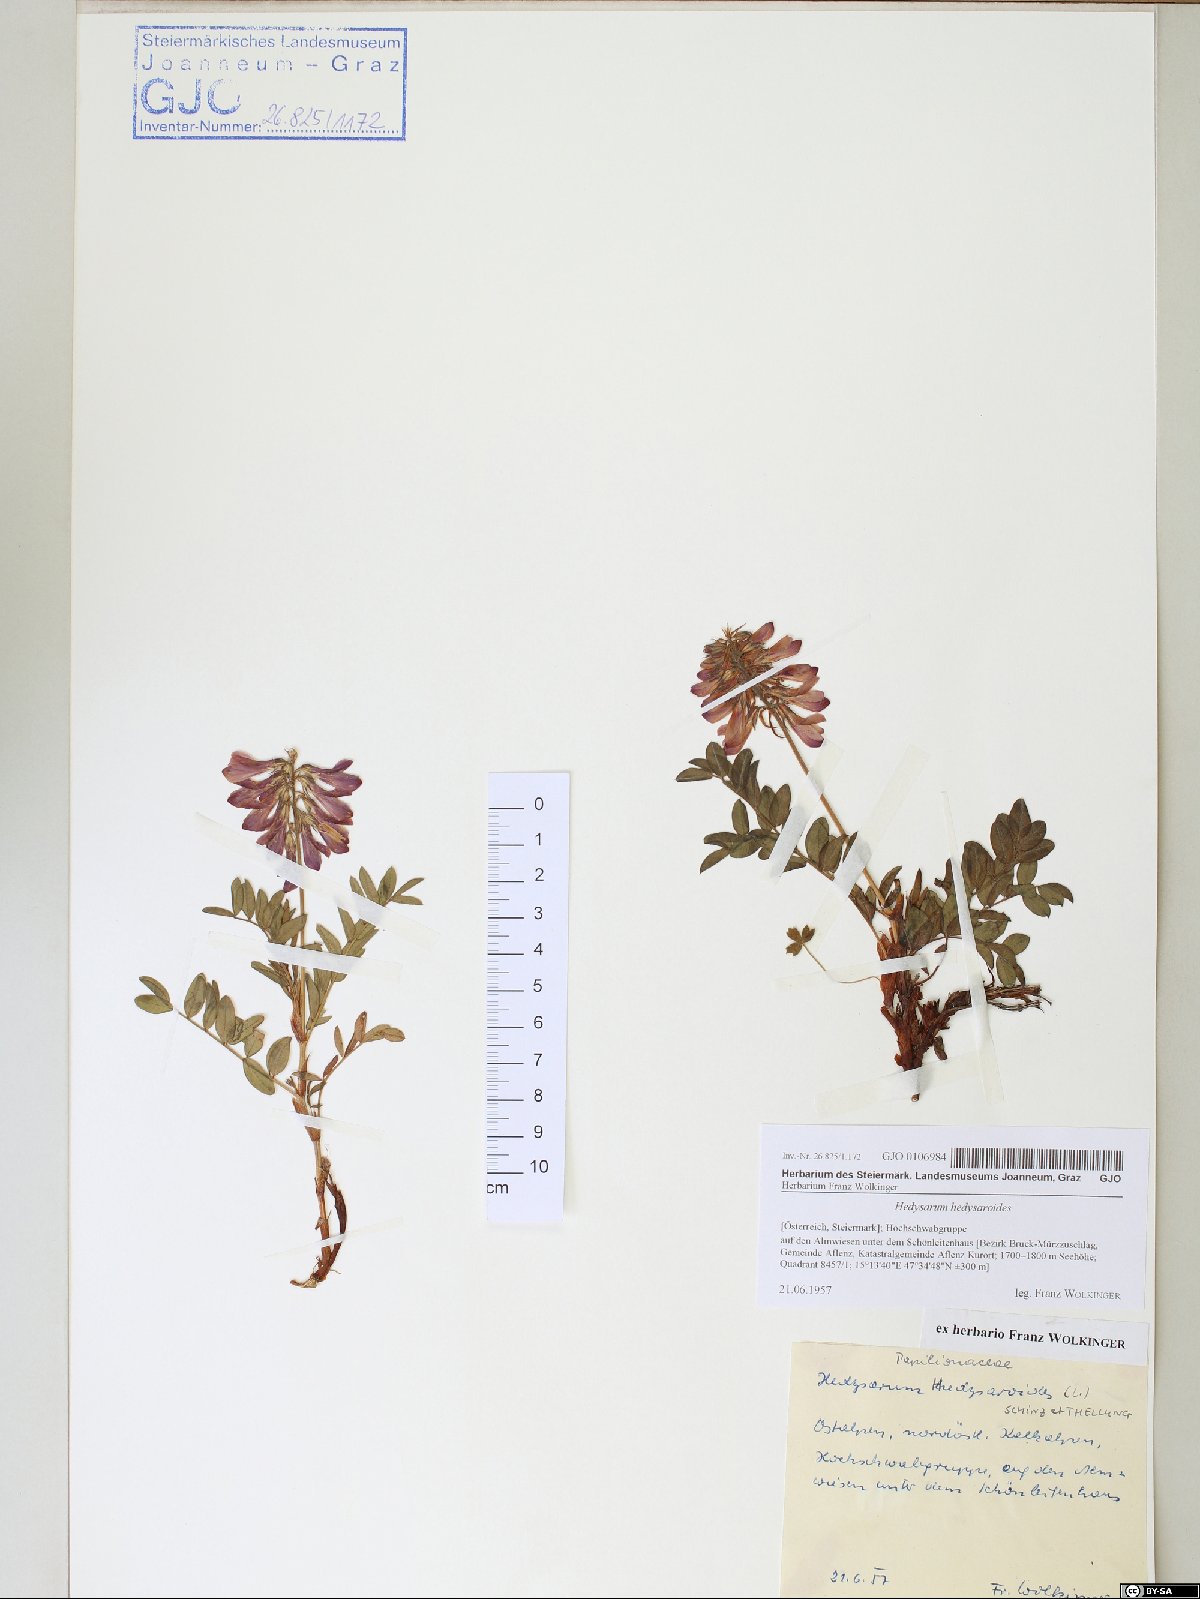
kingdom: Plantae
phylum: Tracheophyta
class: Magnoliopsida
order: Fabales
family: Fabaceae
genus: Hedysarum
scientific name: Hedysarum hedysaroides
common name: Alpine french-honeysuckle
